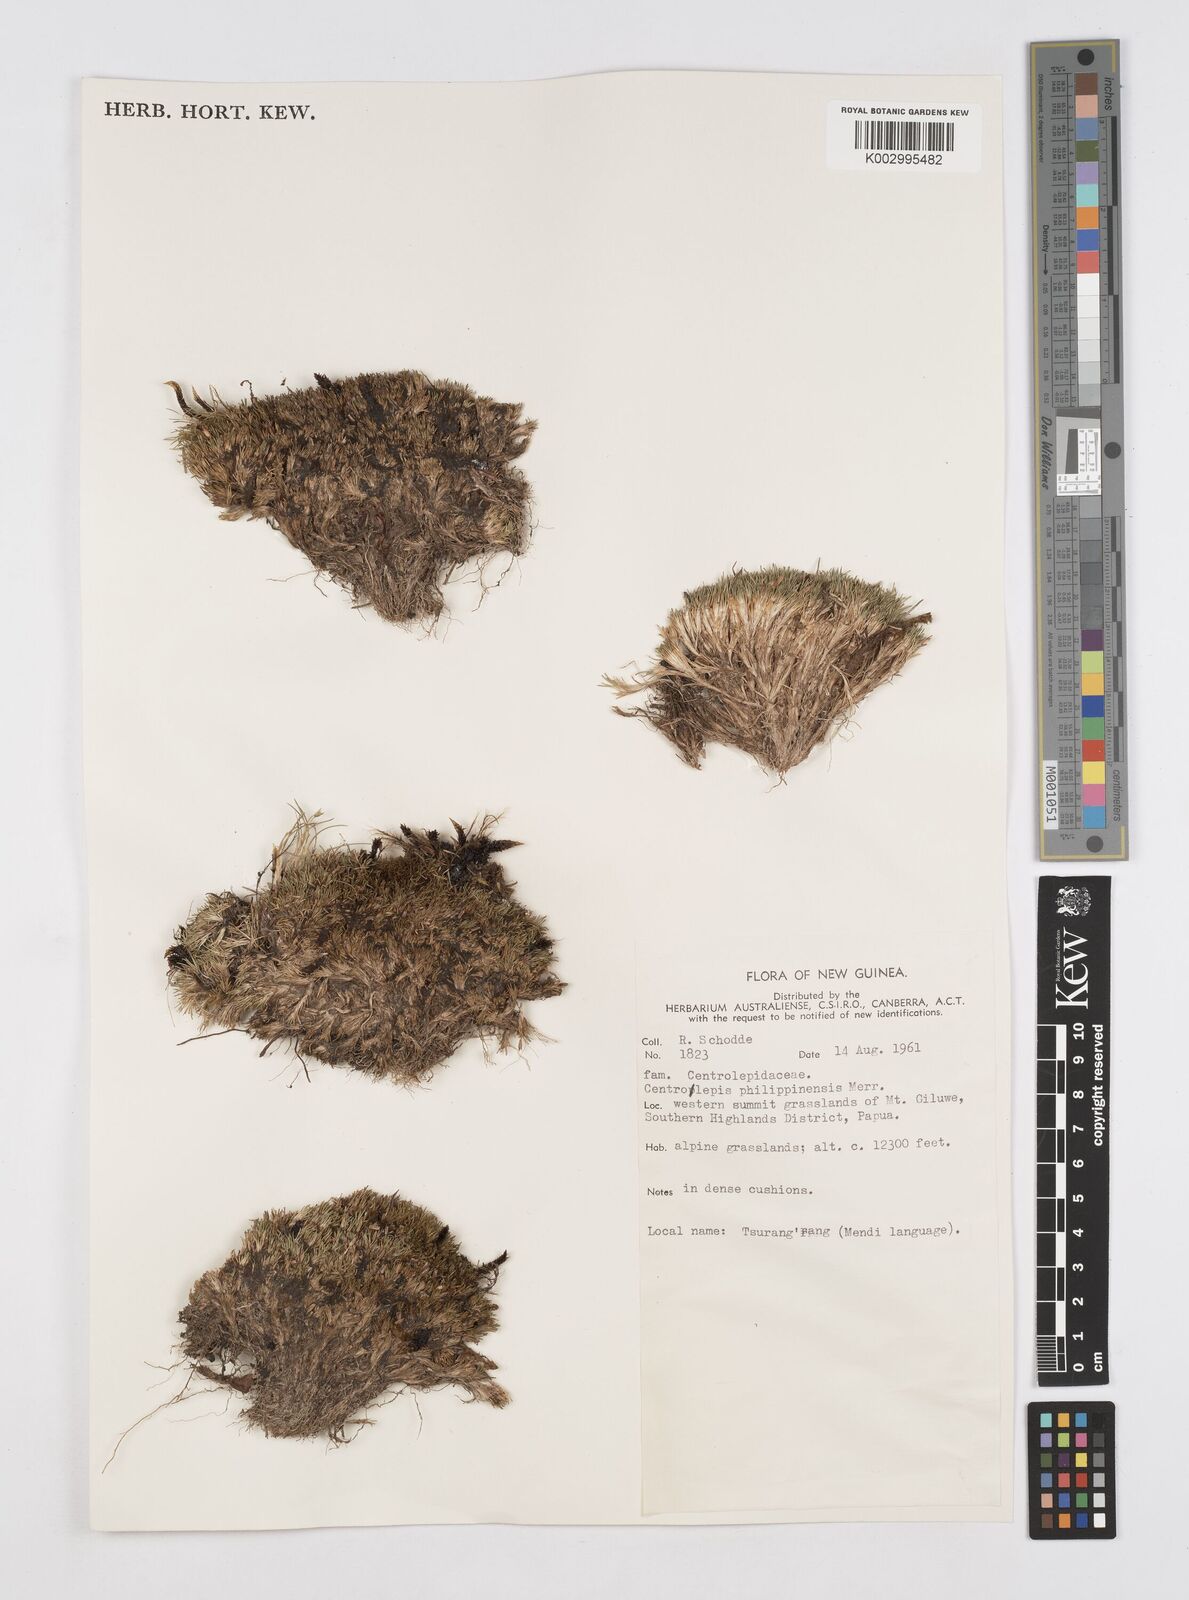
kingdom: Plantae
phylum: Tracheophyta
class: Liliopsida
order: Poales
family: Restionaceae
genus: Centrolepis
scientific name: Centrolepis philippinensis
